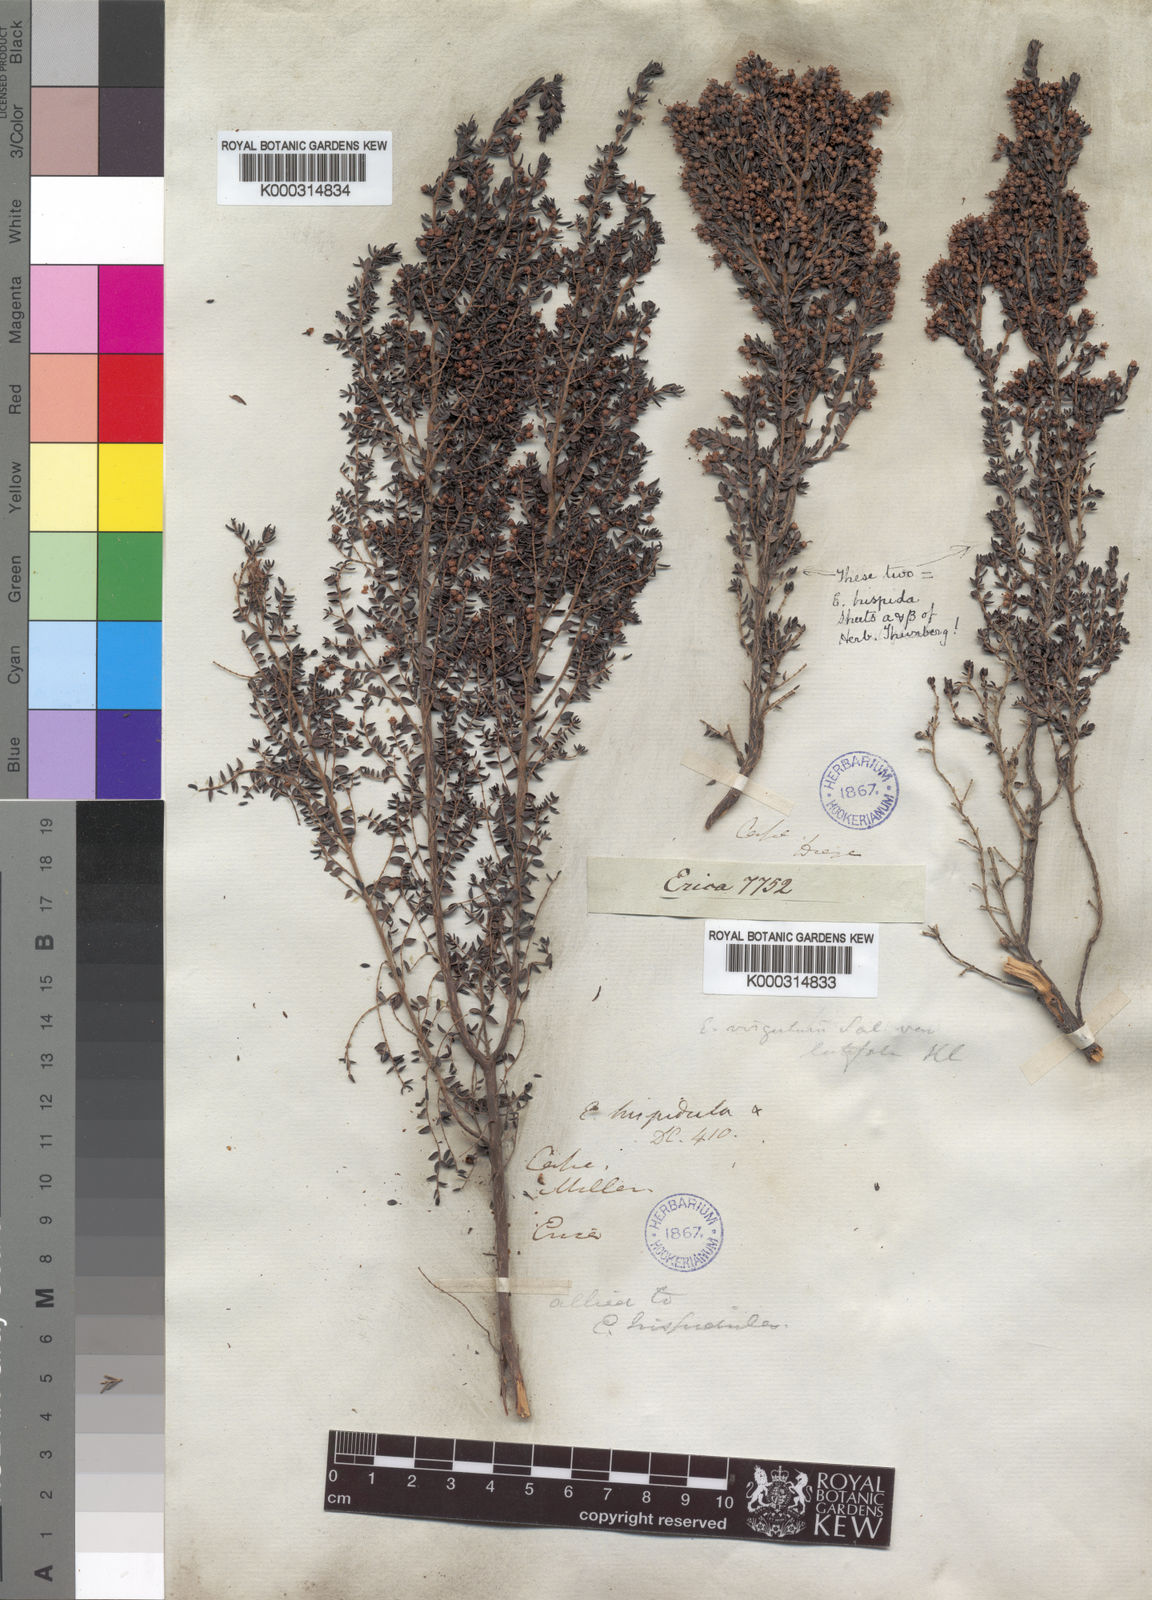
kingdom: Plantae
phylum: Tracheophyta
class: Magnoliopsida
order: Ericales
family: Ericaceae
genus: Erica
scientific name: Erica hispidula
